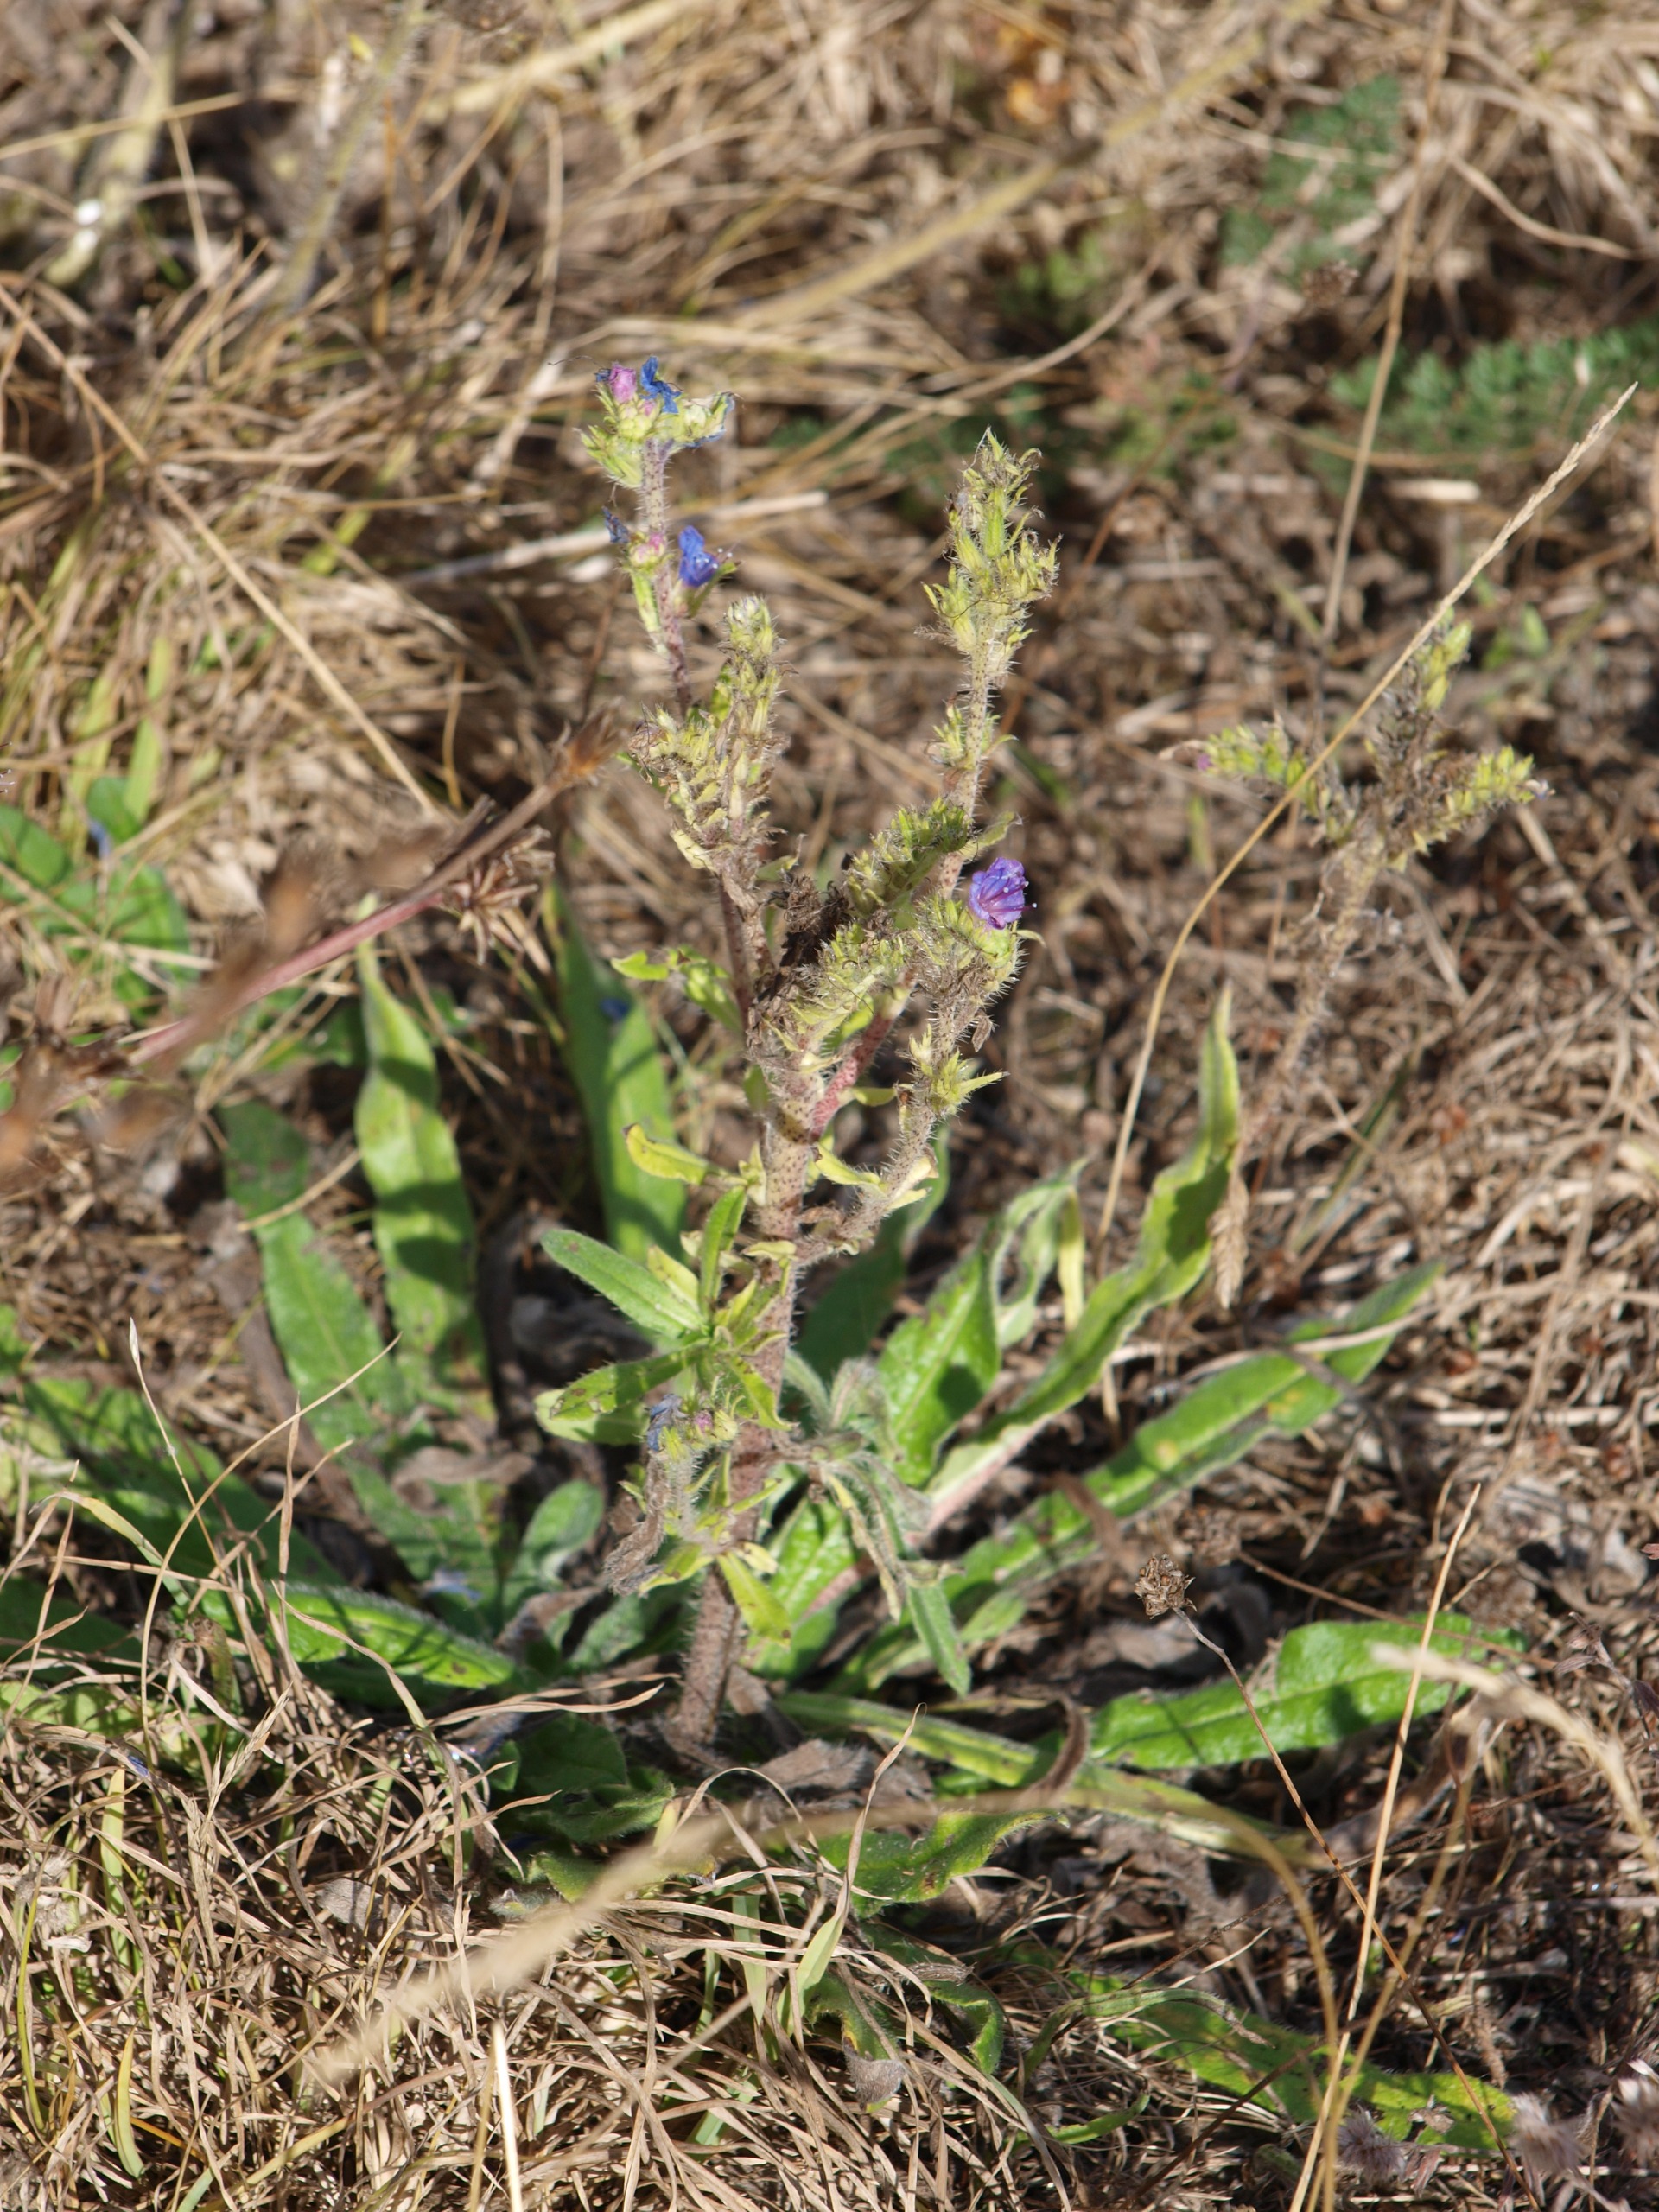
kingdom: Plantae
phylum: Tracheophyta
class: Magnoliopsida
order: Boraginales
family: Boraginaceae
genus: Echium
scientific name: Echium vulgare
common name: Slangehoved
